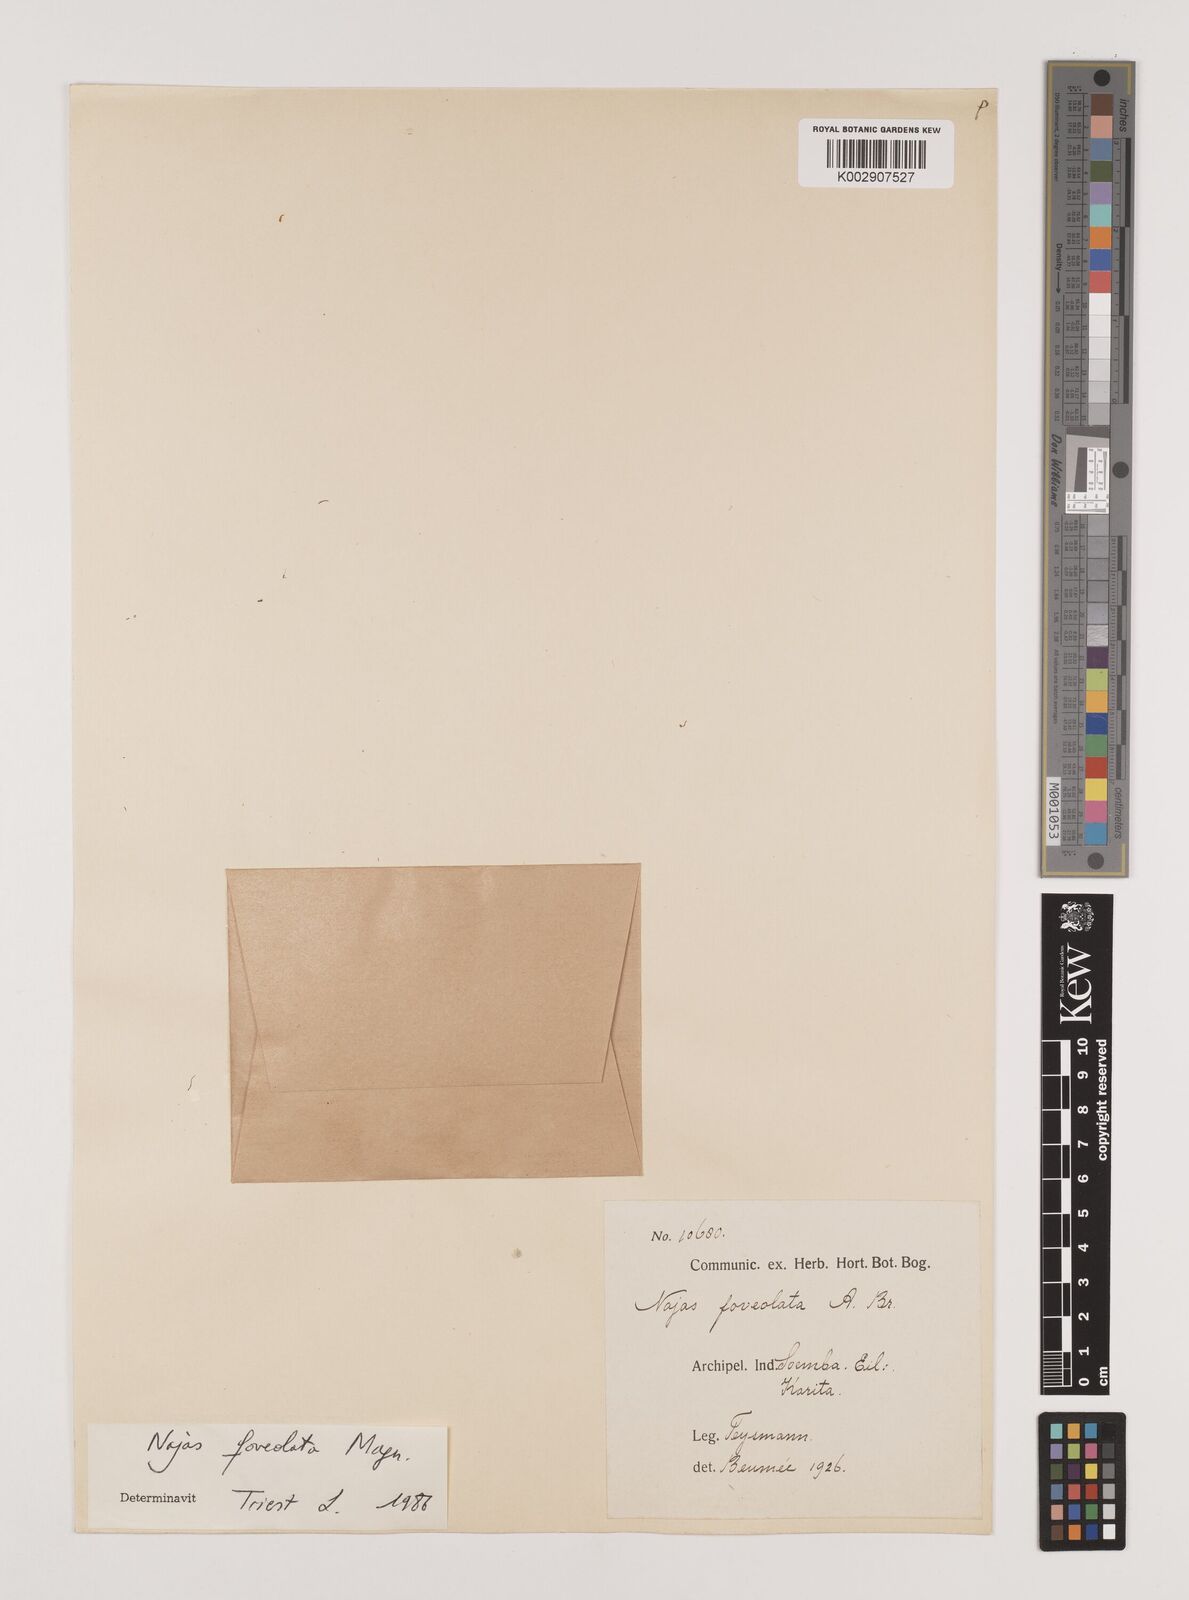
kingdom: Plantae
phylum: Tracheophyta
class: Liliopsida
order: Alismatales
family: Hydrocharitaceae
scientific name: Hydrocharitaceae
